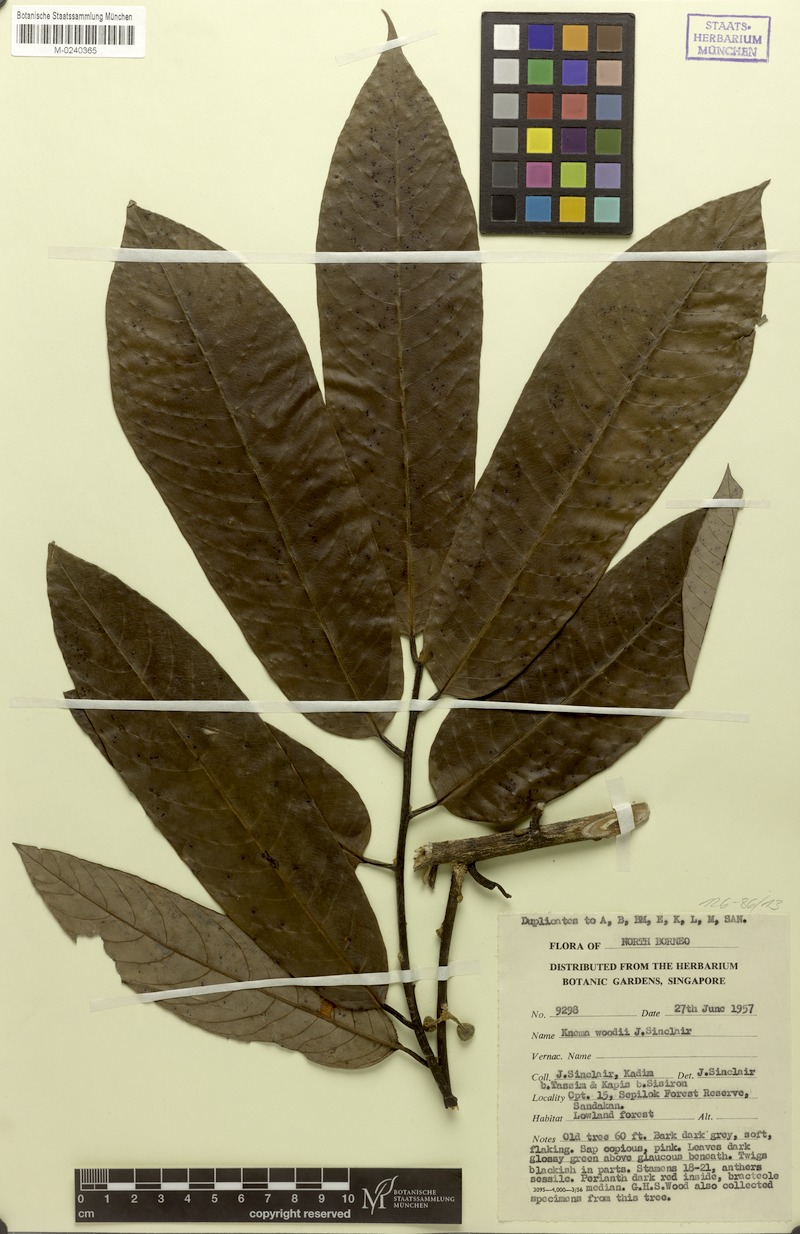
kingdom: Plantae
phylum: Tracheophyta
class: Magnoliopsida
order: Magnoliales
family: Myristicaceae
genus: Knema
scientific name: Knema woodii
